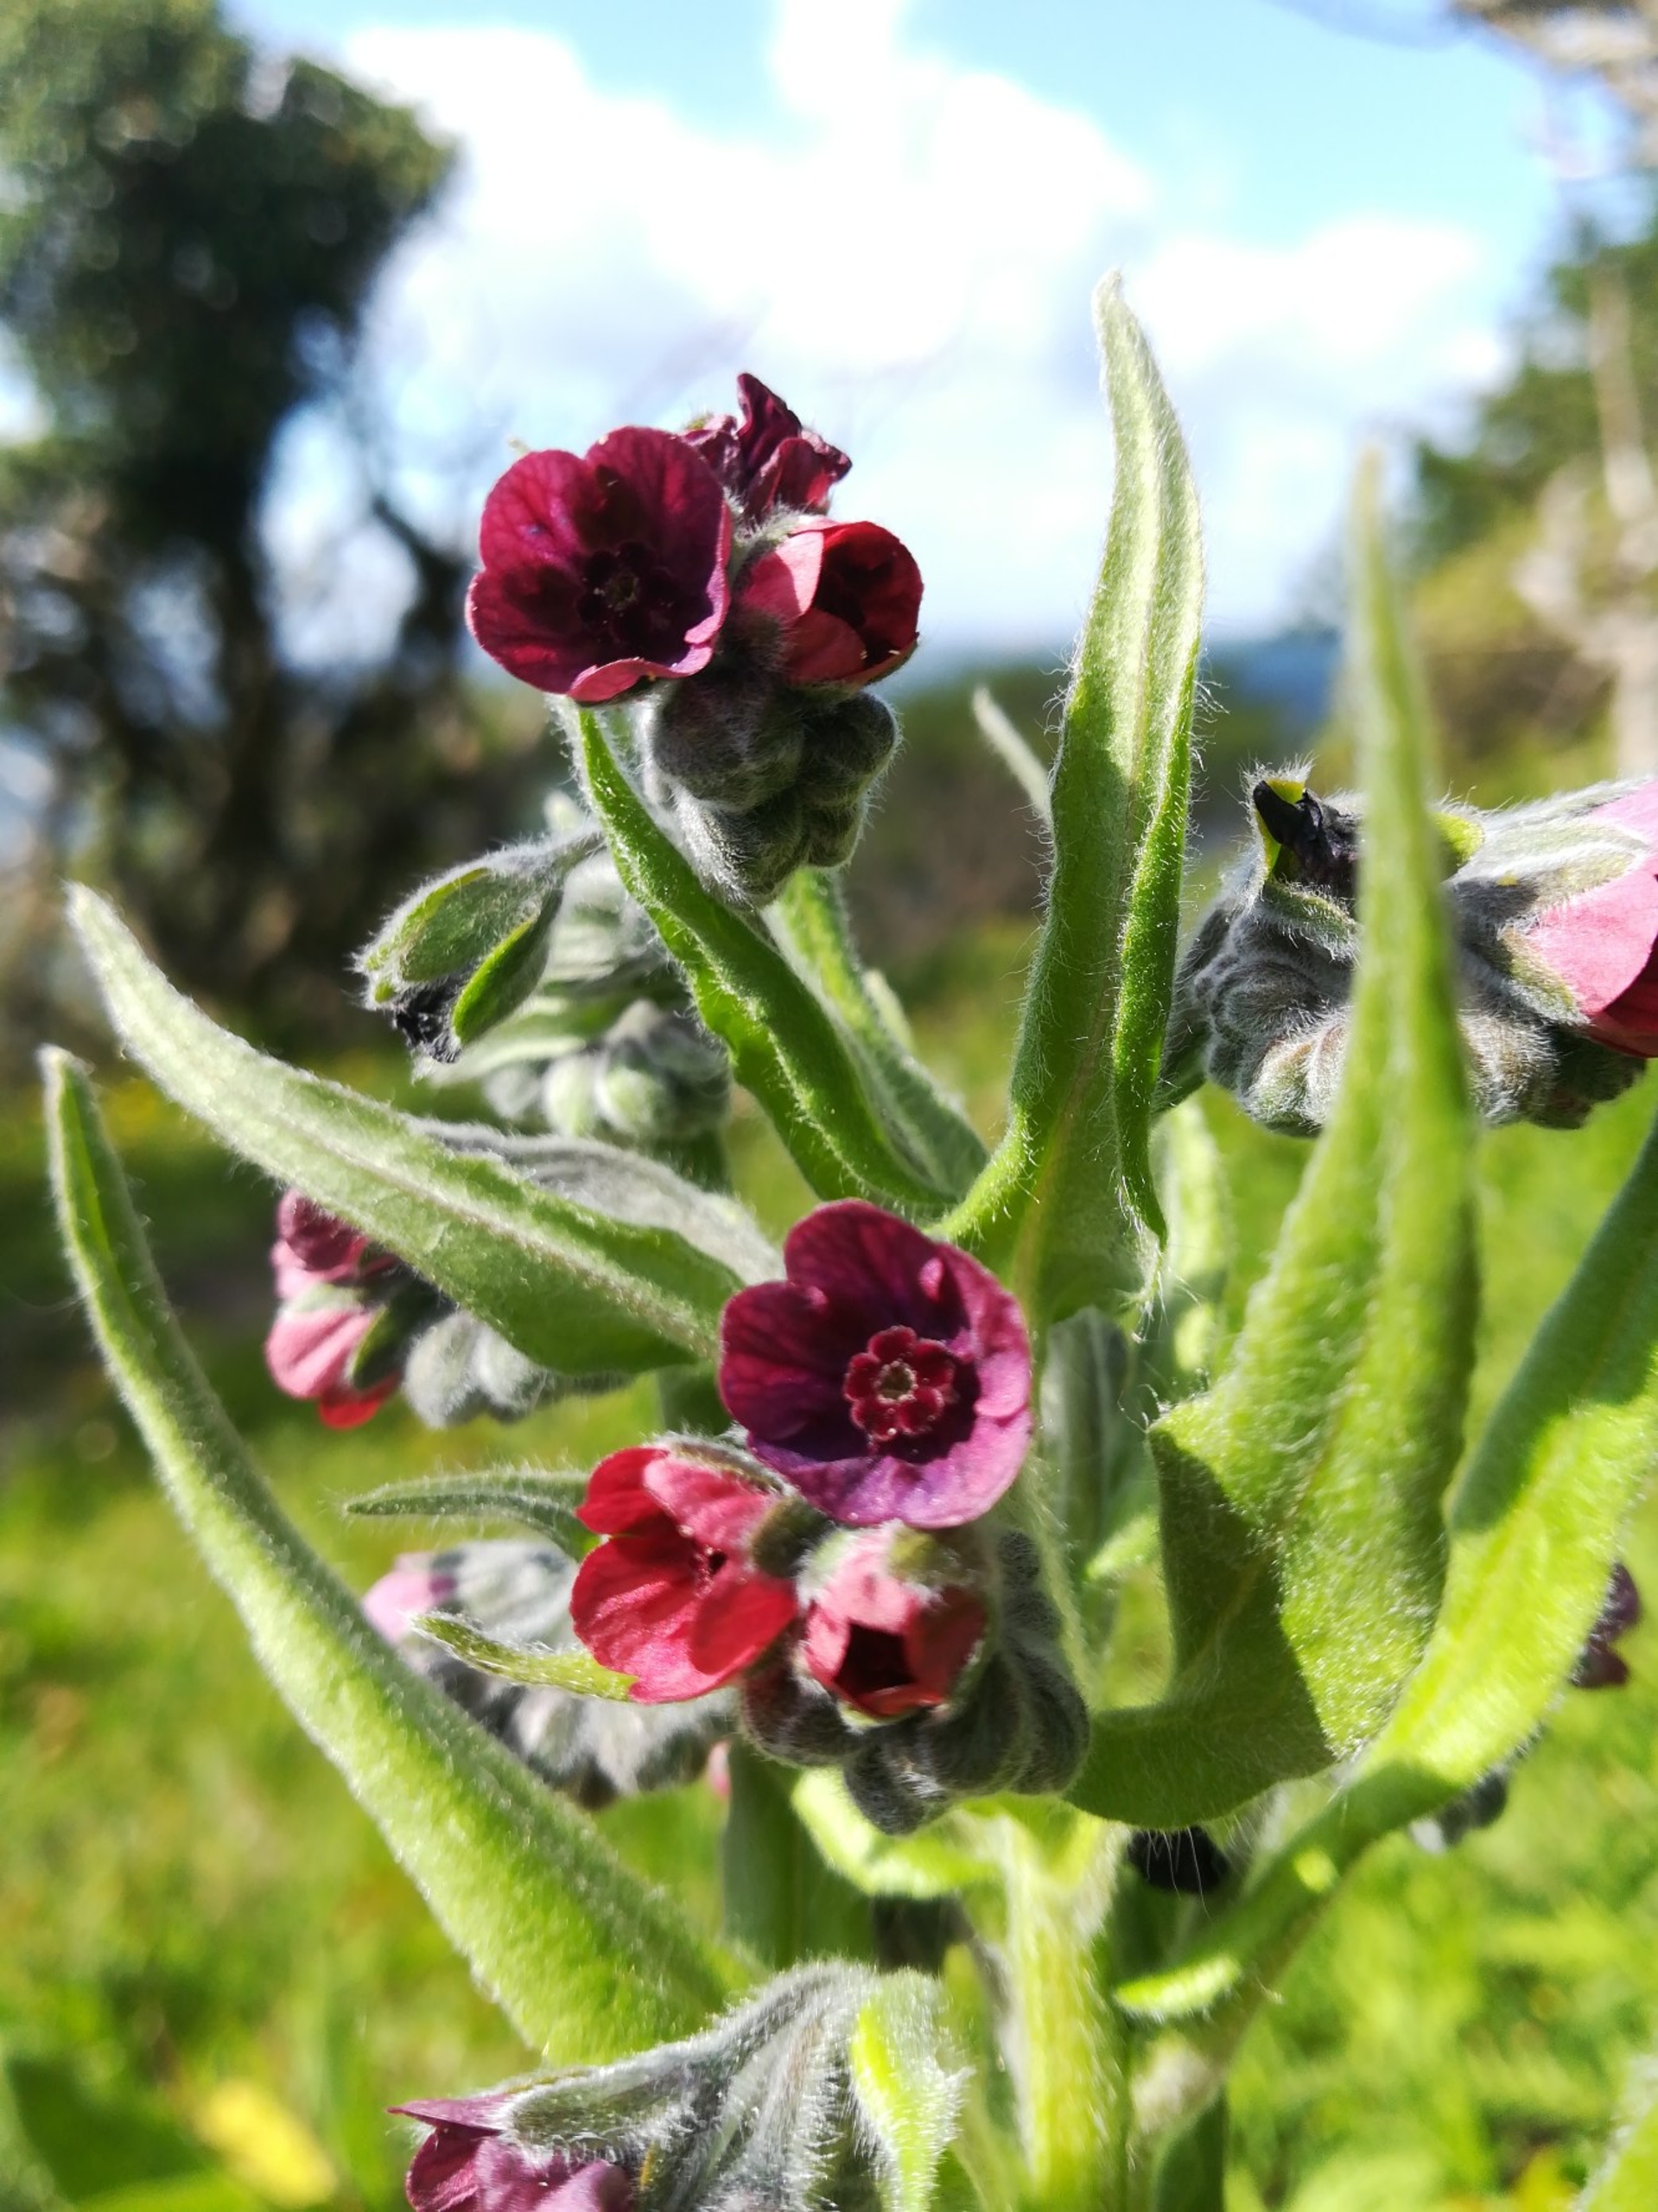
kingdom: Plantae
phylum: Tracheophyta
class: Magnoliopsida
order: Boraginales
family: Boraginaceae
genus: Cynoglossum
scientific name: Cynoglossum officinale
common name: Hundetunge
